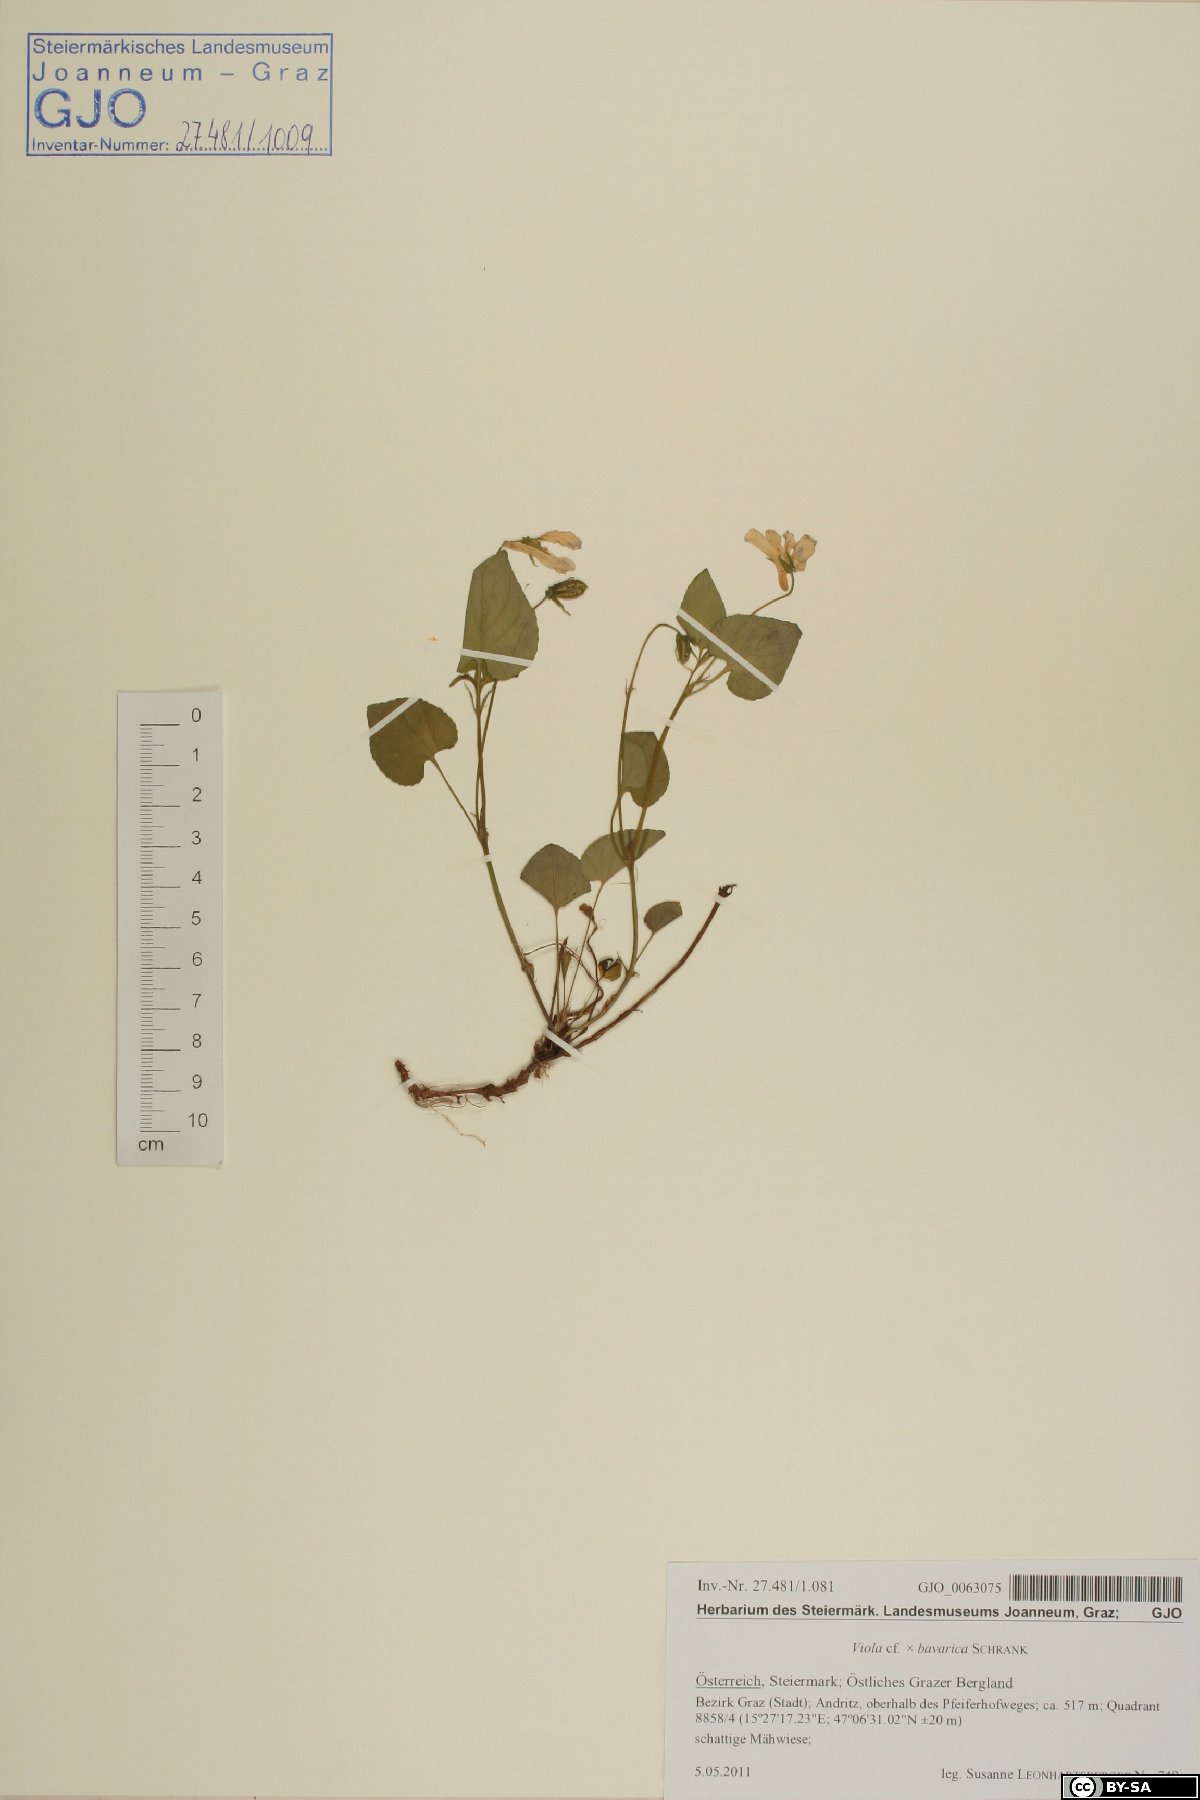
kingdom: Plantae
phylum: Tracheophyta
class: Magnoliopsida
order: Malpighiales
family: Violaceae
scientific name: Violaceae
